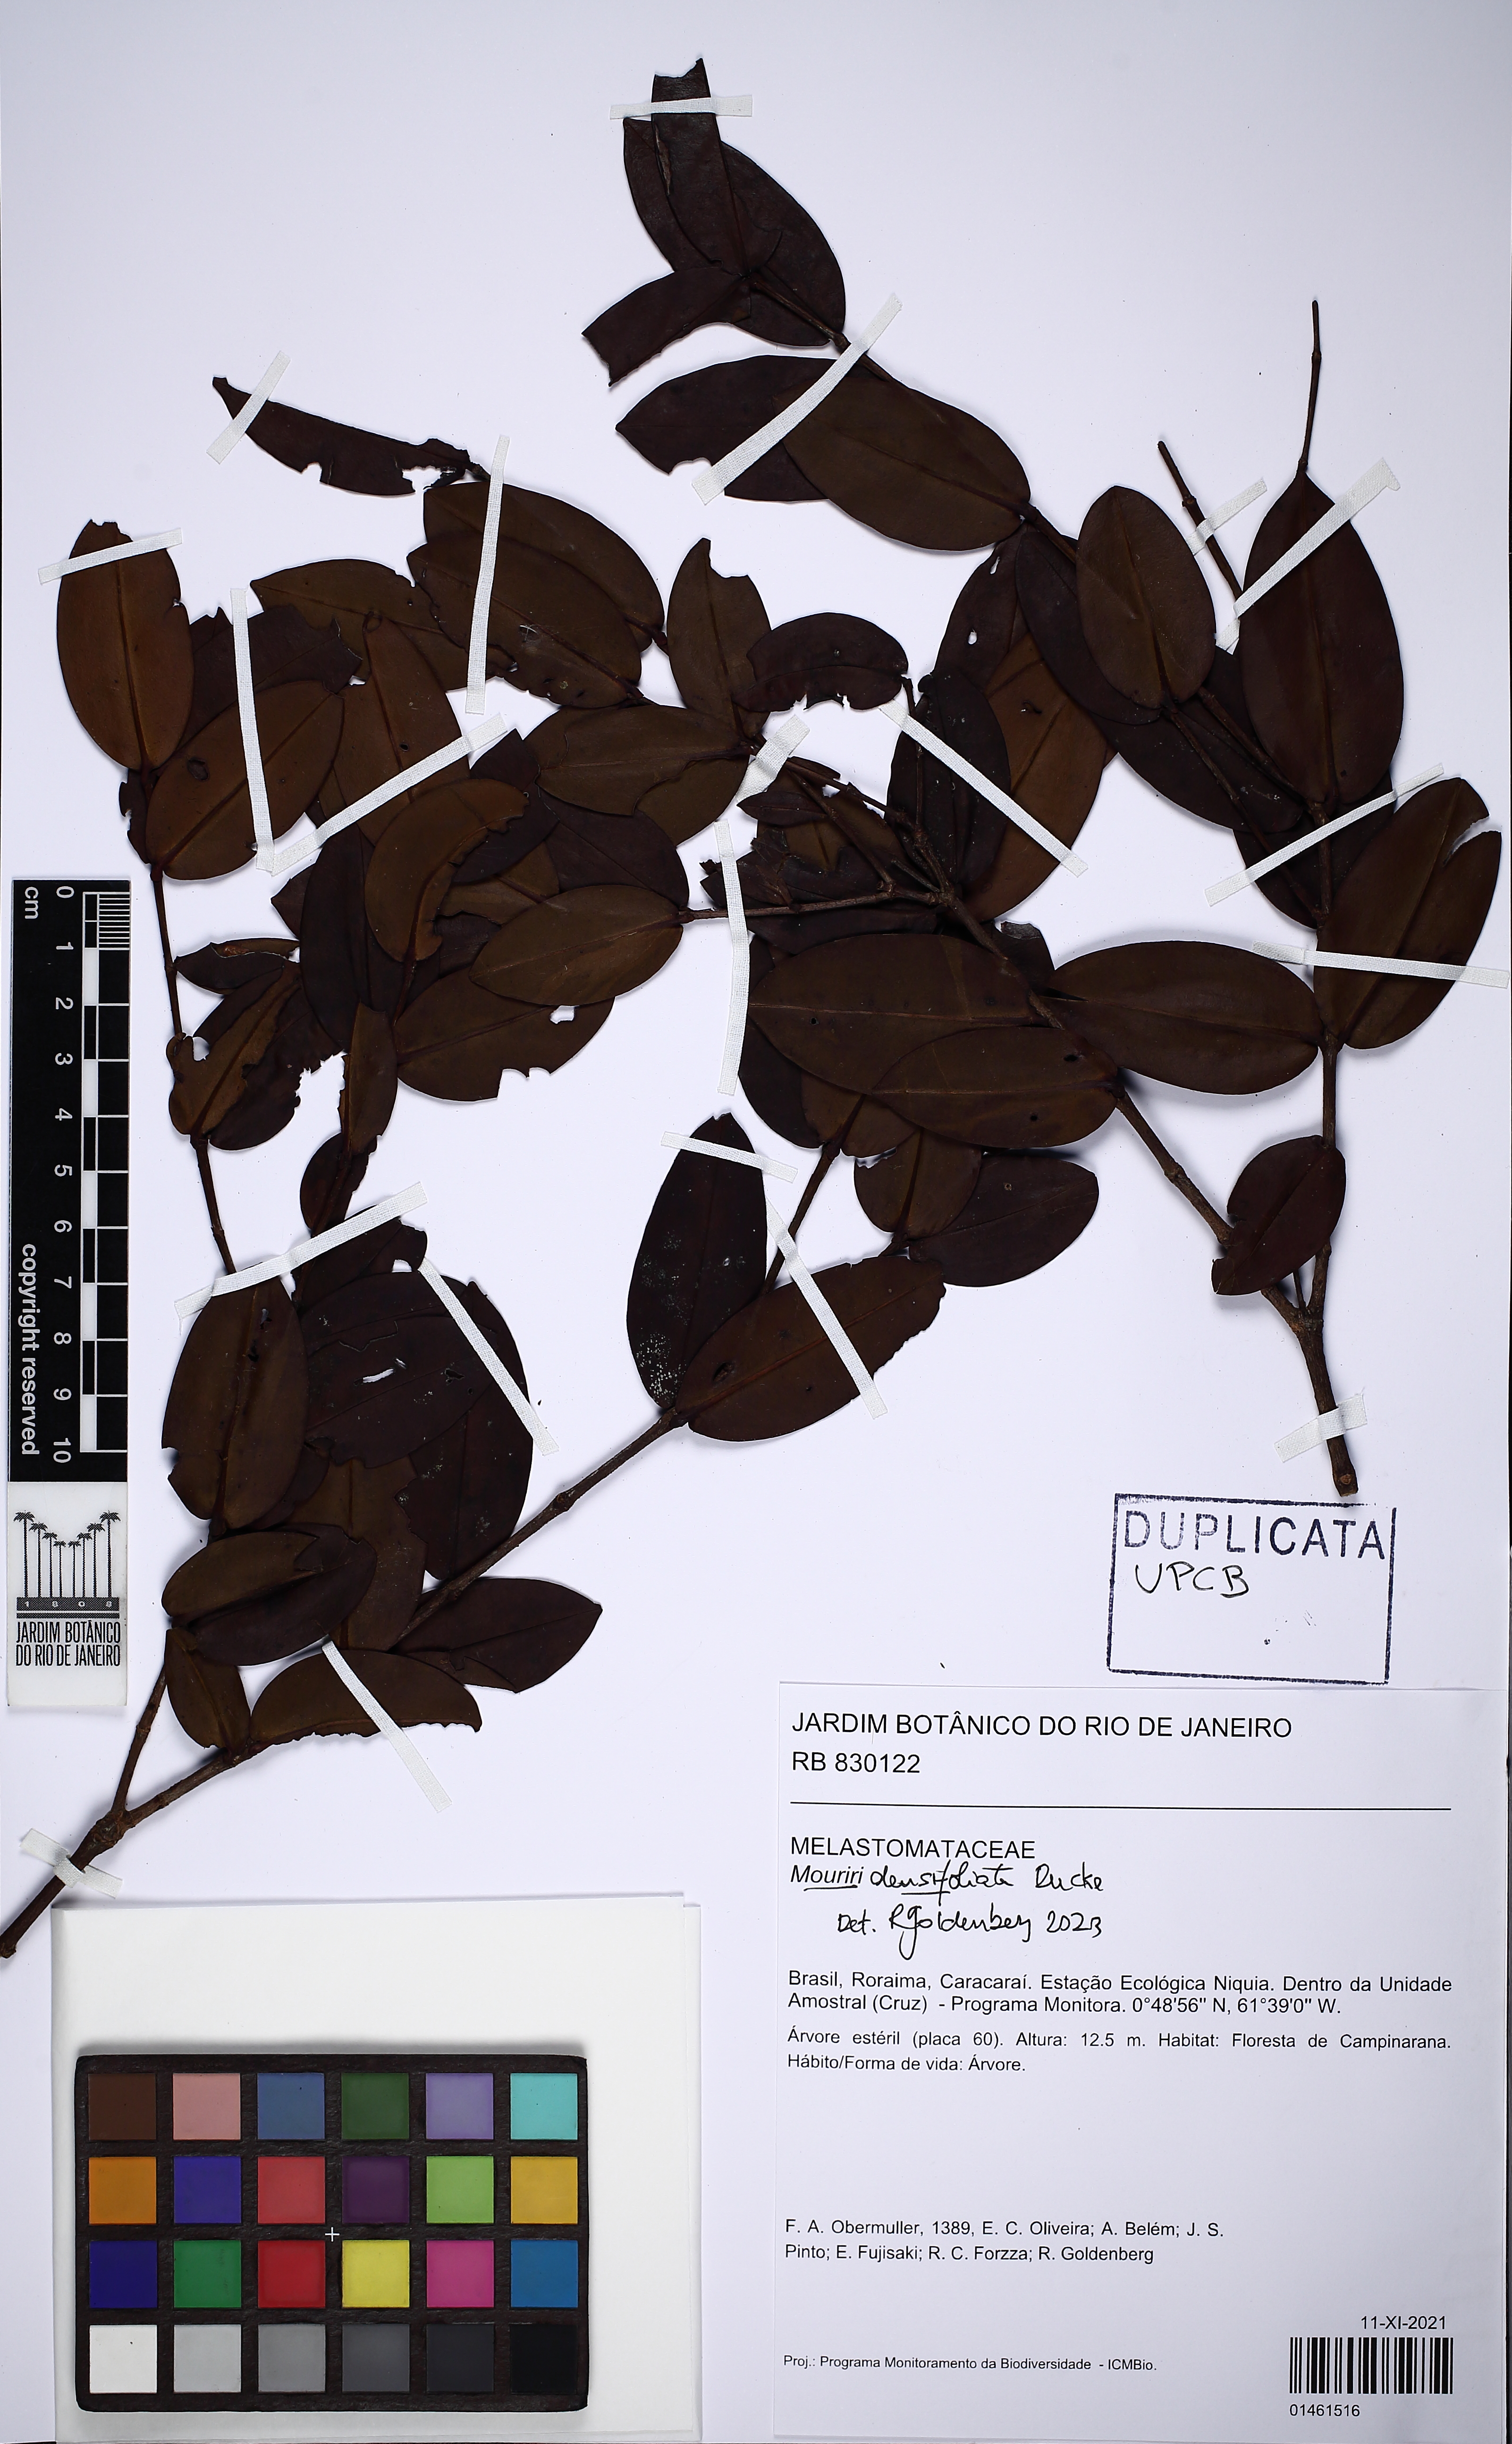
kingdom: Plantae
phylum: Tracheophyta
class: Magnoliopsida
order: Myrtales
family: Melastomataceae
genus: Mouriri
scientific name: Mouriri densifoliata
